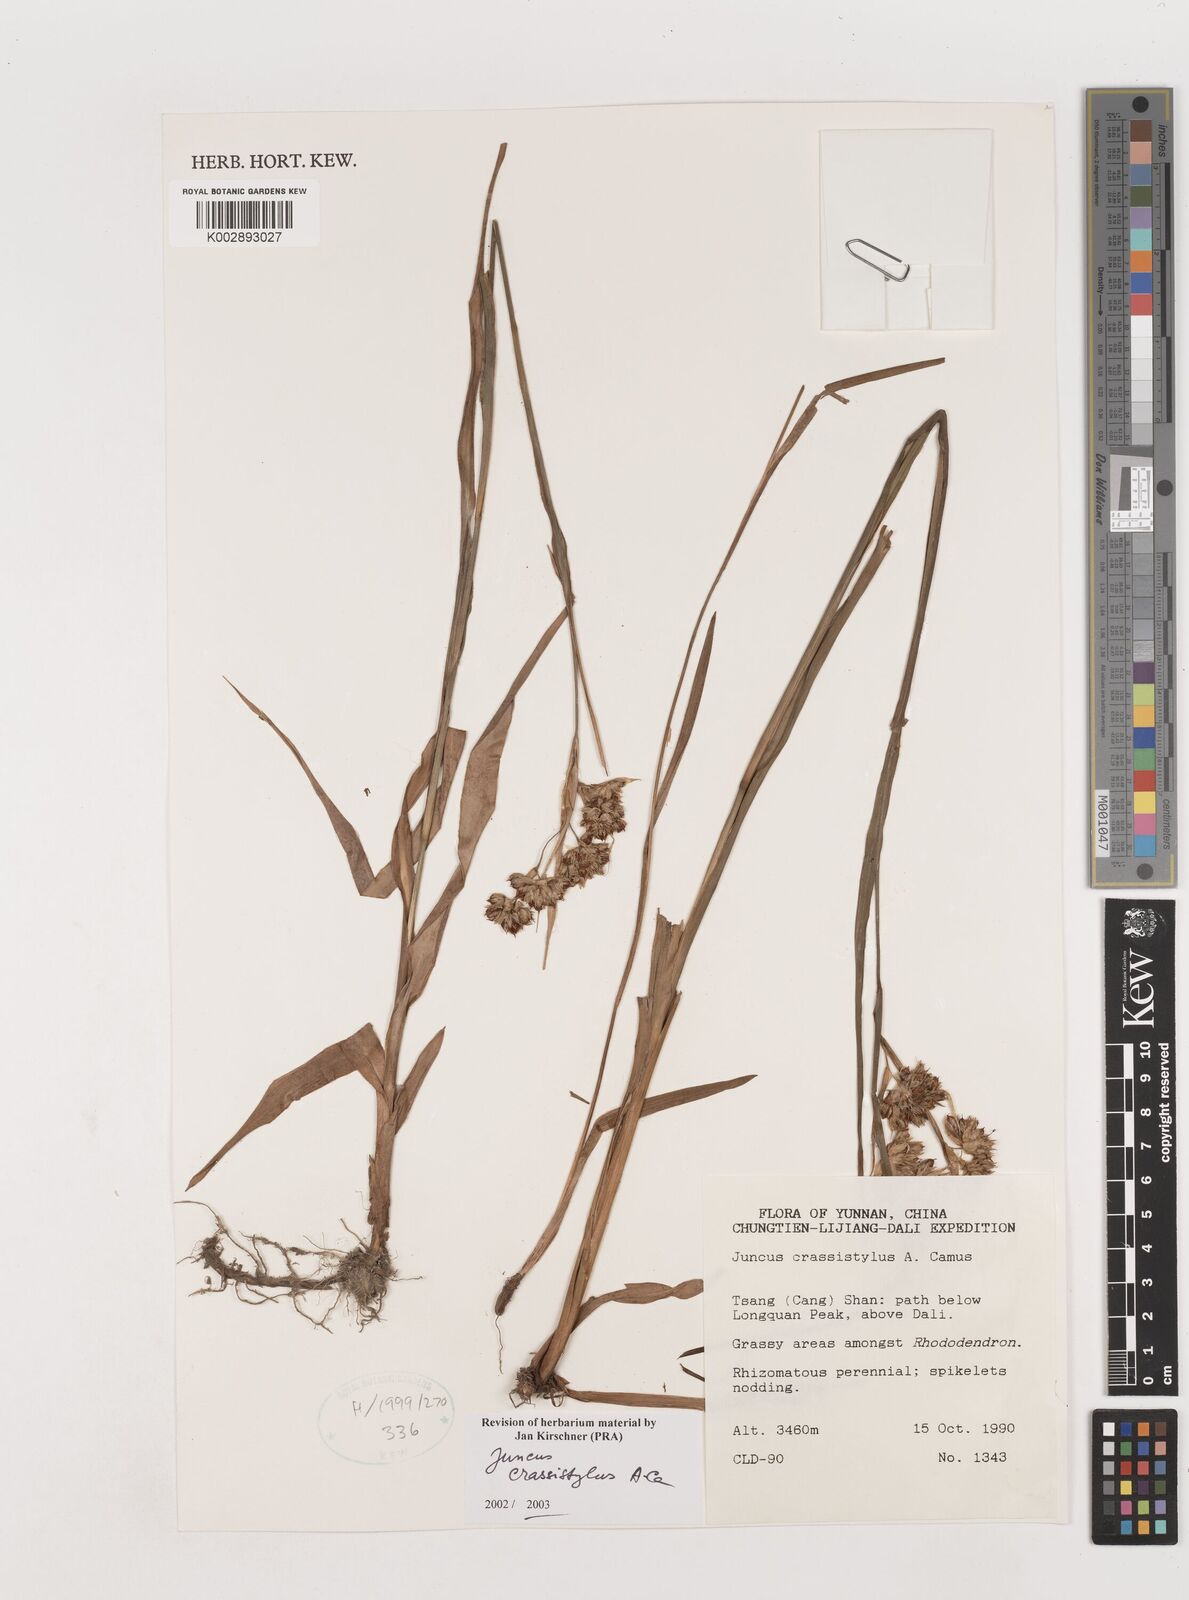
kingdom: Plantae
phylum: Tracheophyta
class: Liliopsida
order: Poales
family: Juncaceae
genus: Juncus
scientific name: Juncus crassistylus
